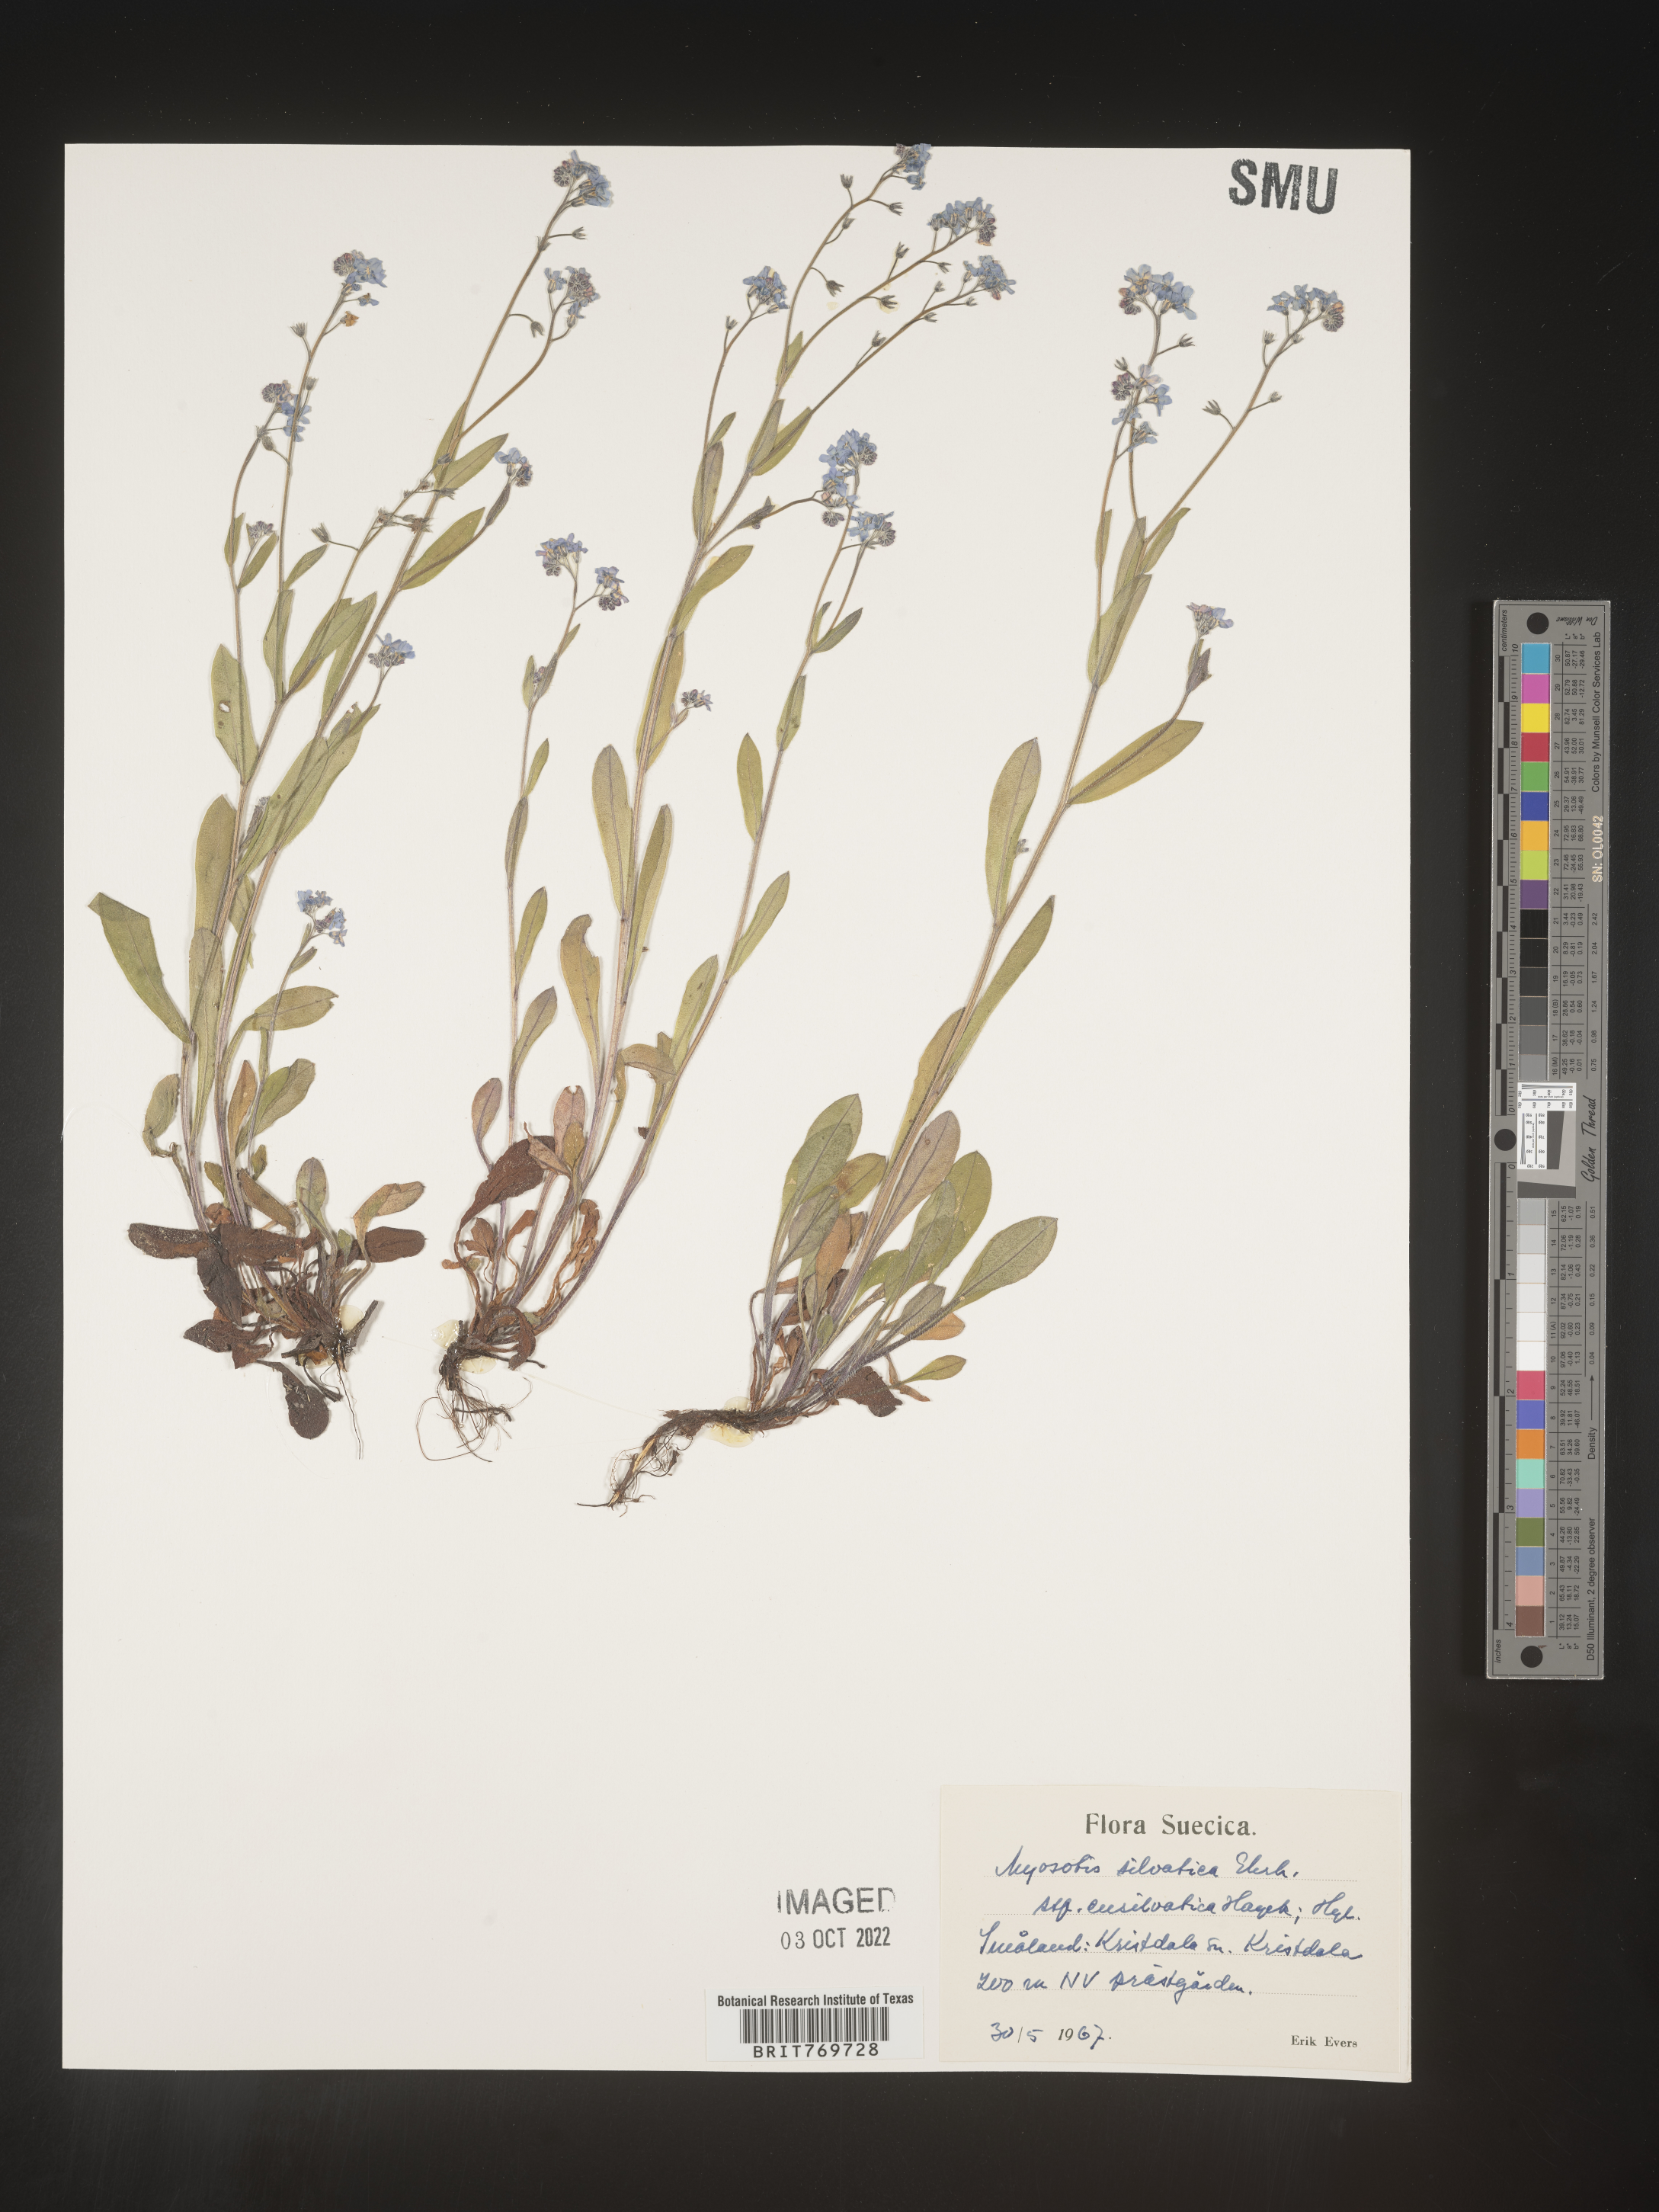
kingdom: Plantae
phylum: Tracheophyta
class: Magnoliopsida
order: Boraginales
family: Boraginaceae
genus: Myosotis
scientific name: Myosotis
